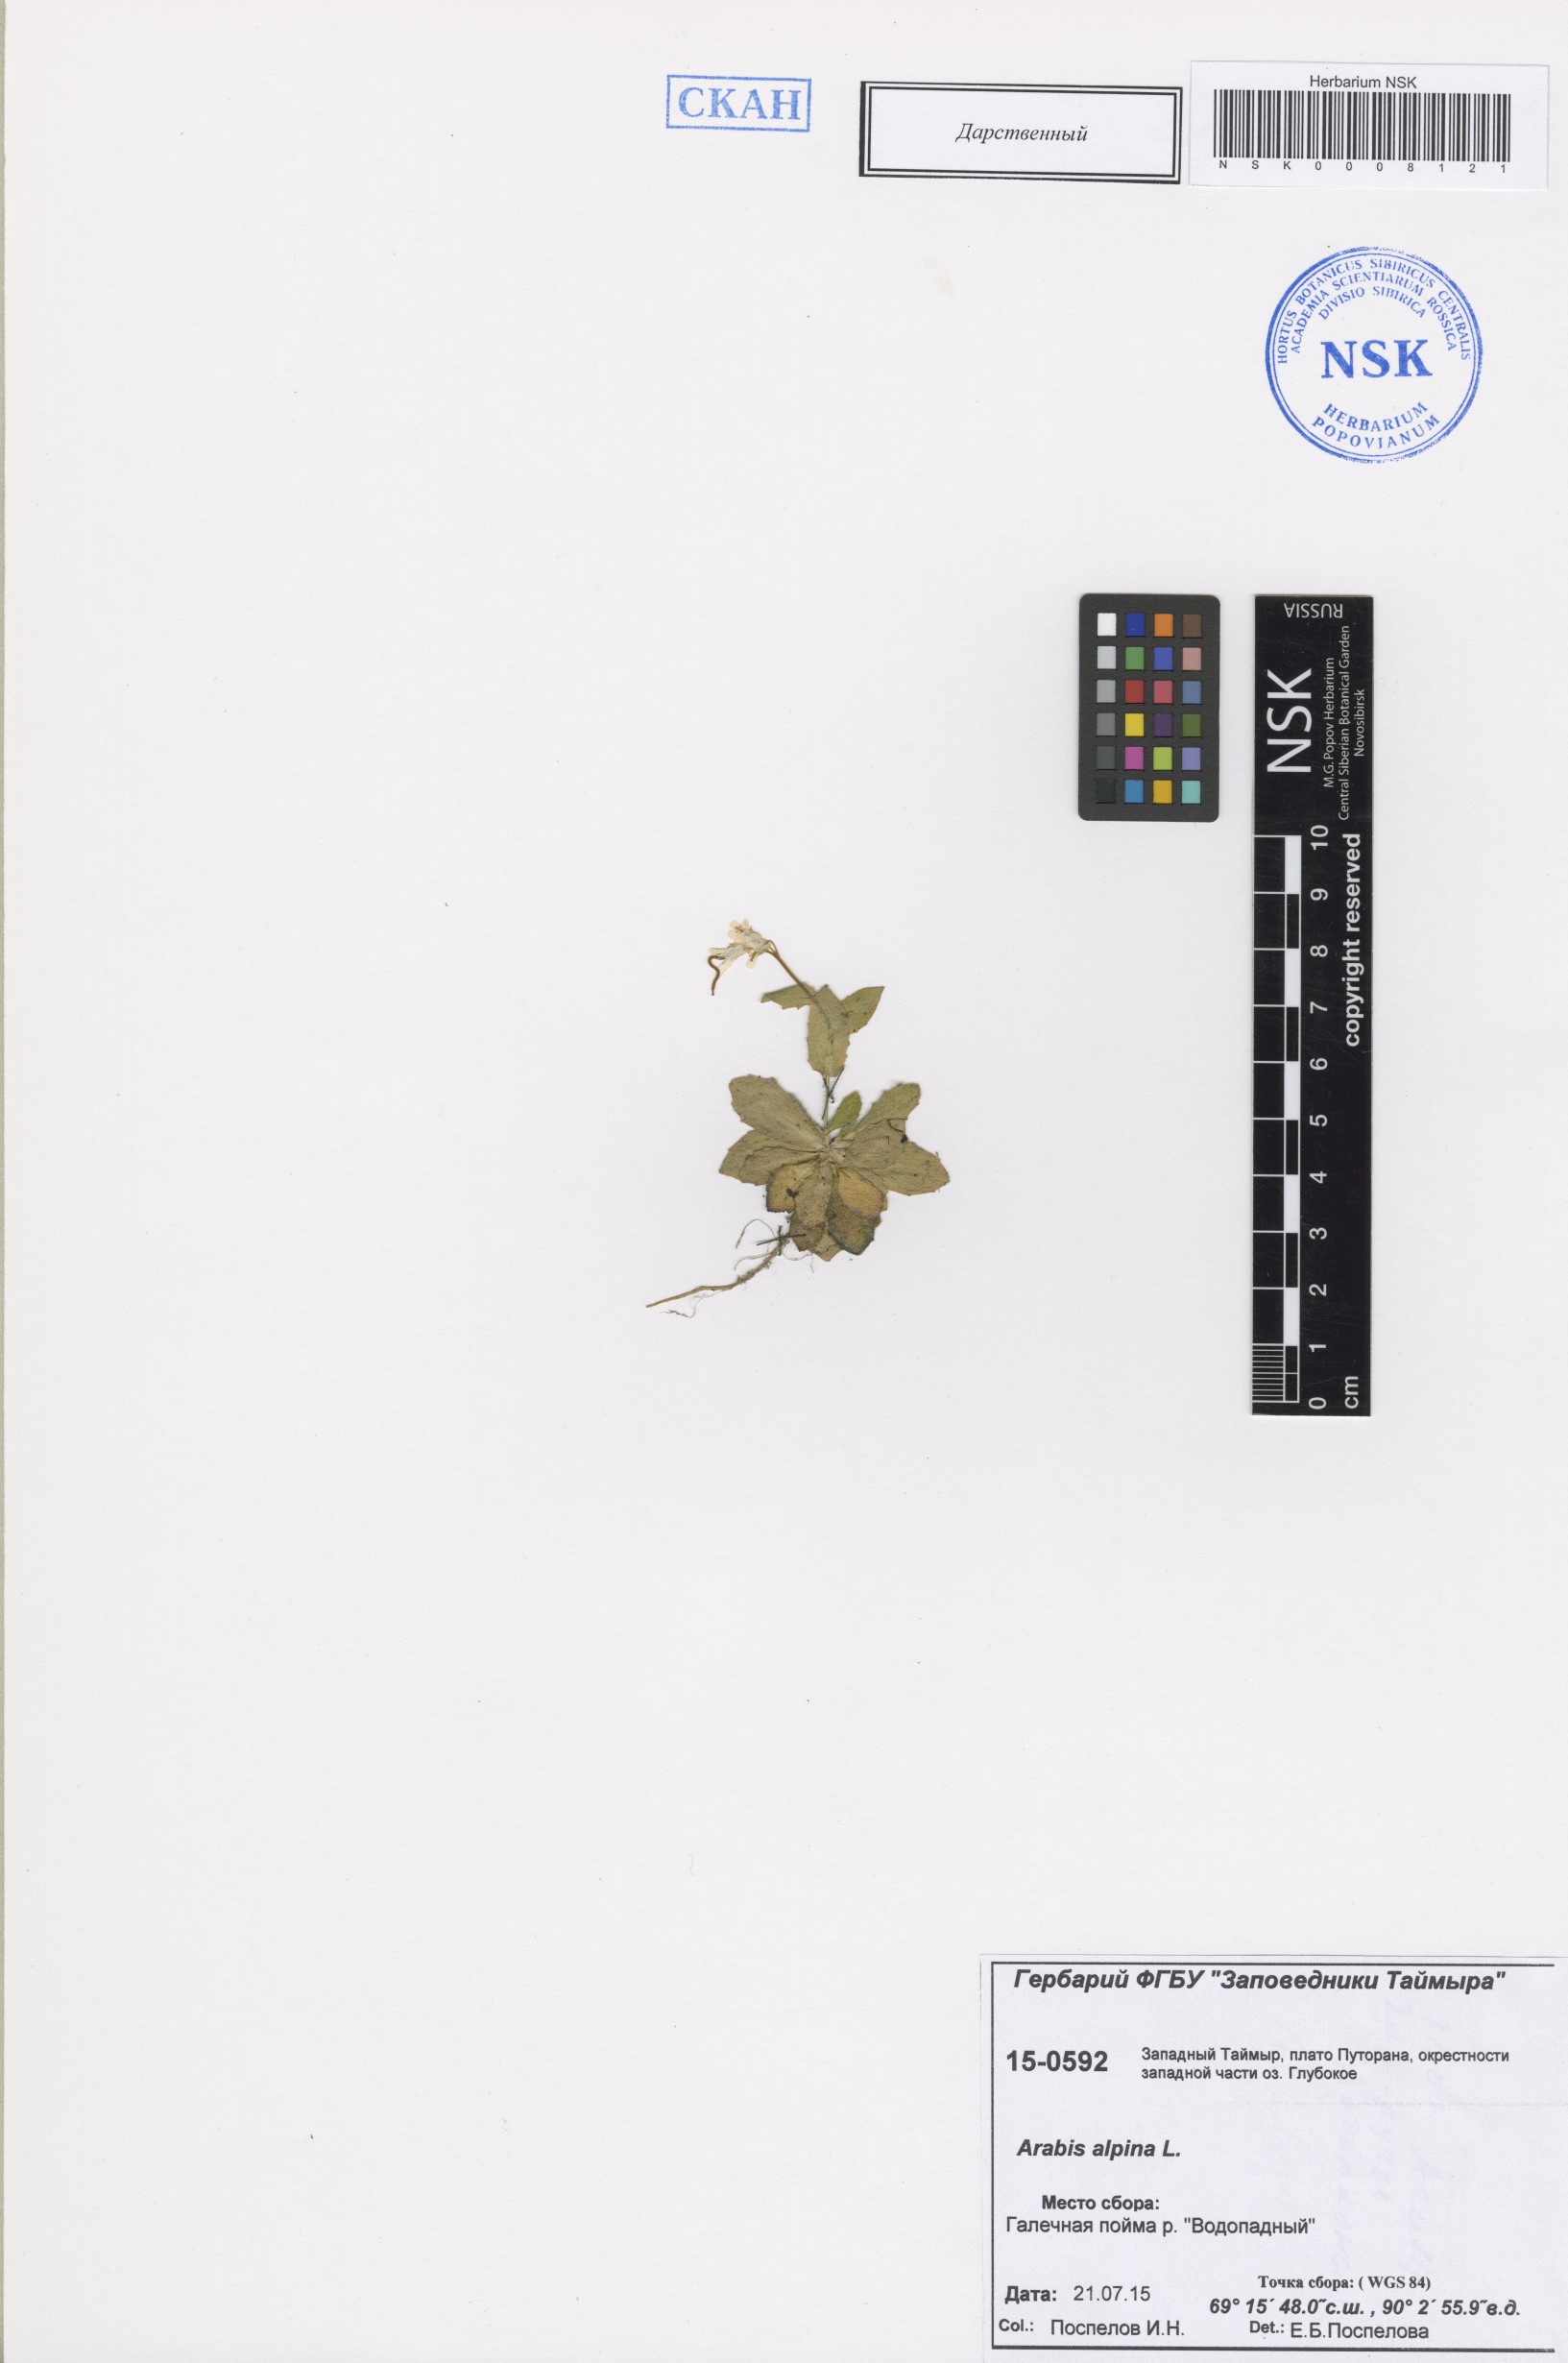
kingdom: Plantae
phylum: Tracheophyta
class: Magnoliopsida
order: Brassicales
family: Brassicaceae
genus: Arabis
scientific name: Arabis alpina
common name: Alpine rock-cress
